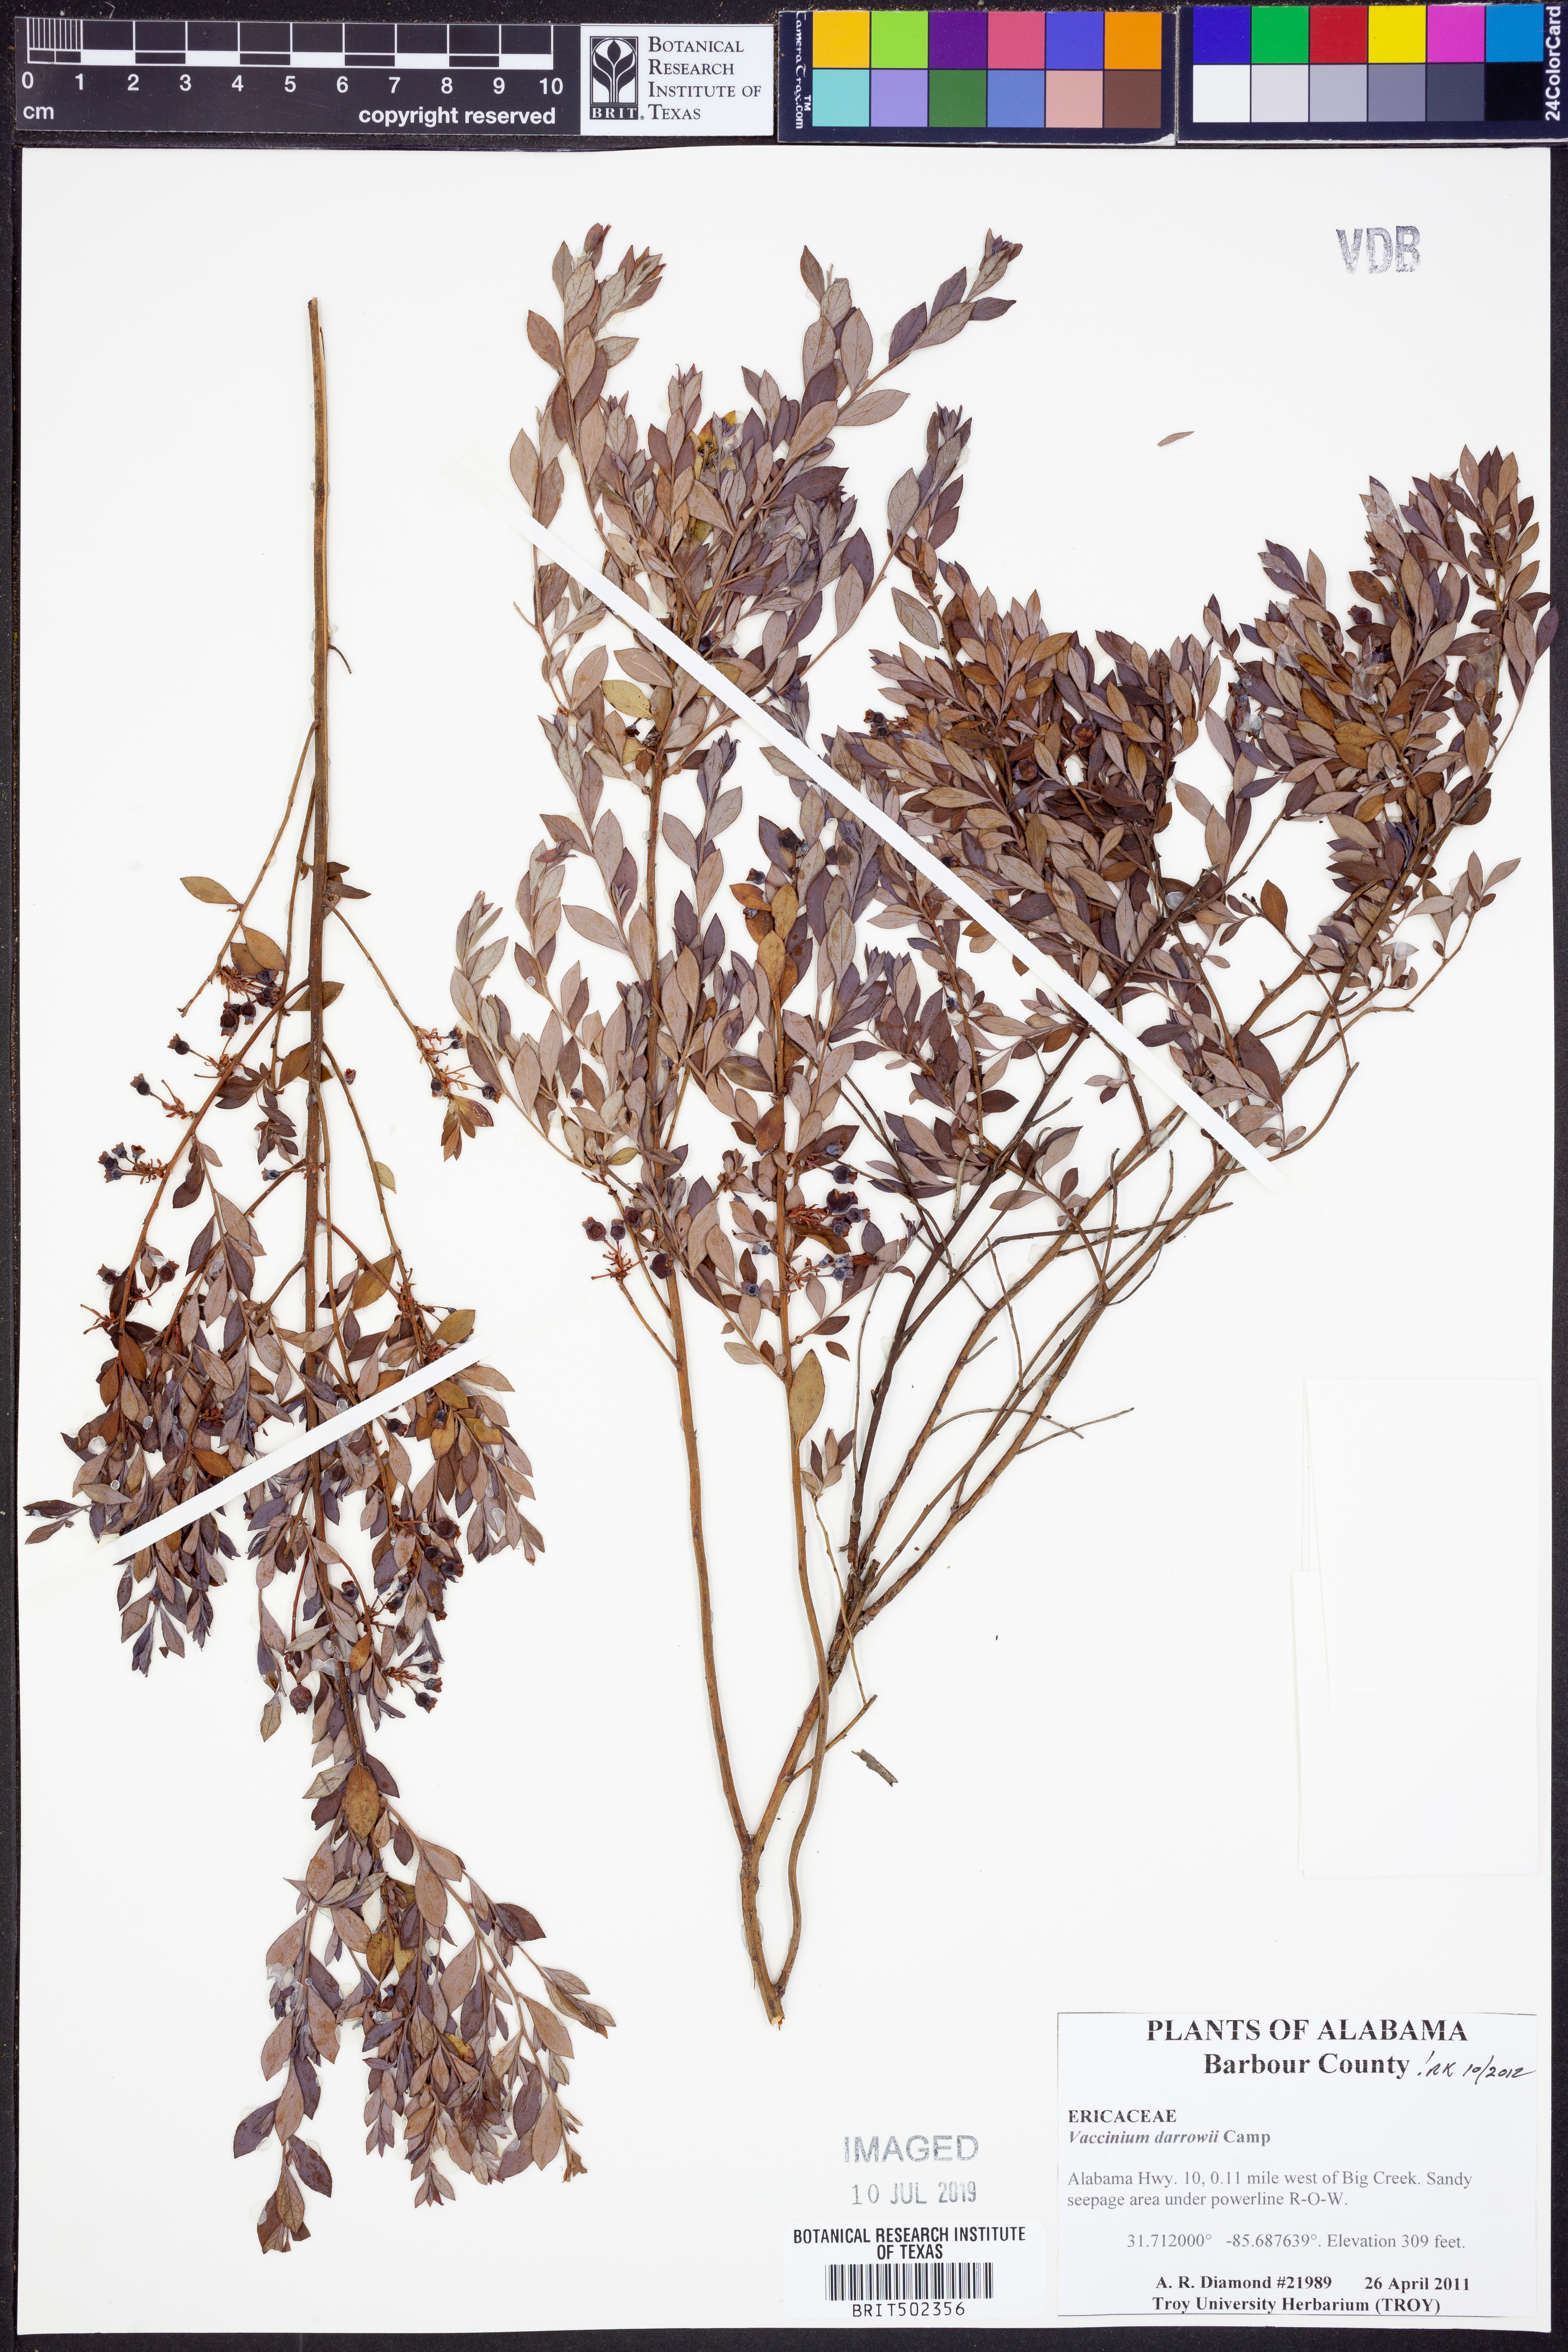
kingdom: Plantae
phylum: Tracheophyta
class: Magnoliopsida
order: Ericales
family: Ericaceae
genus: Vaccinium
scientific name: Vaccinium darrowii
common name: Darrow's blueberry
